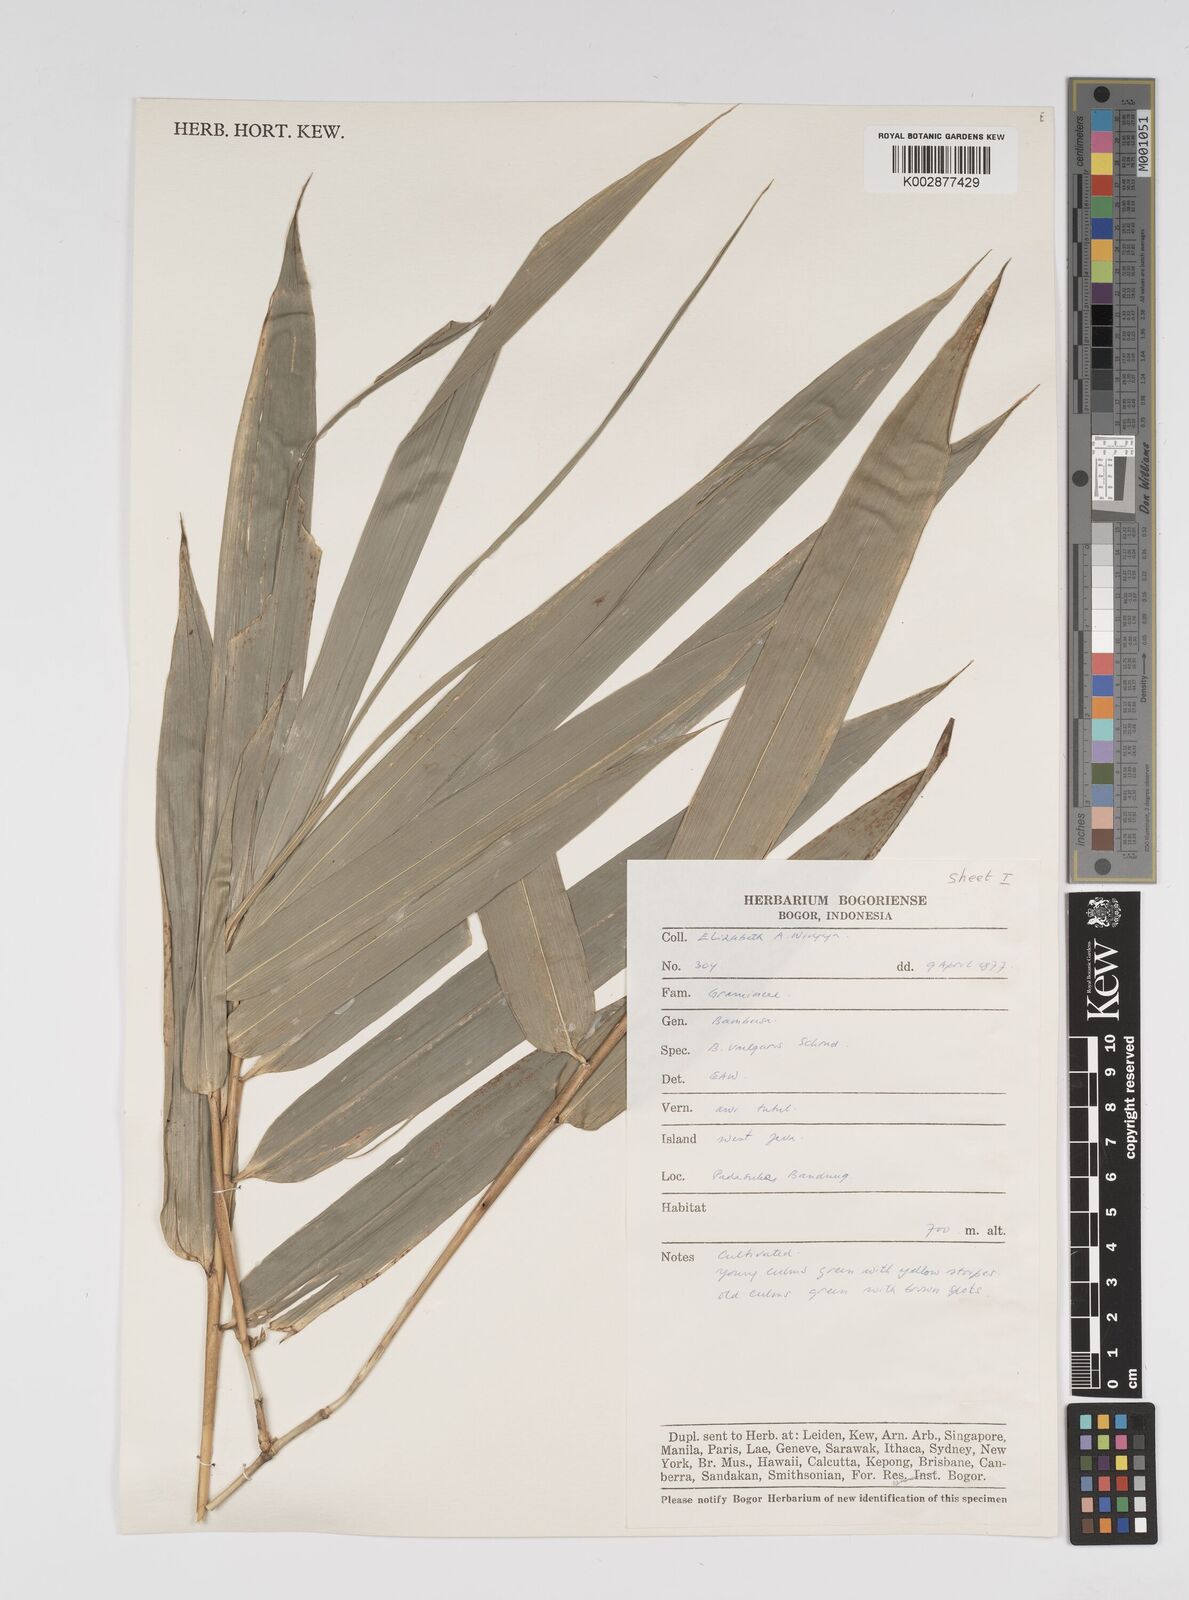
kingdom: Plantae
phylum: Tracheophyta
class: Liliopsida
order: Poales
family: Poaceae
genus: Bambusa
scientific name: Bambusa vulgaris
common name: Common bamboo
